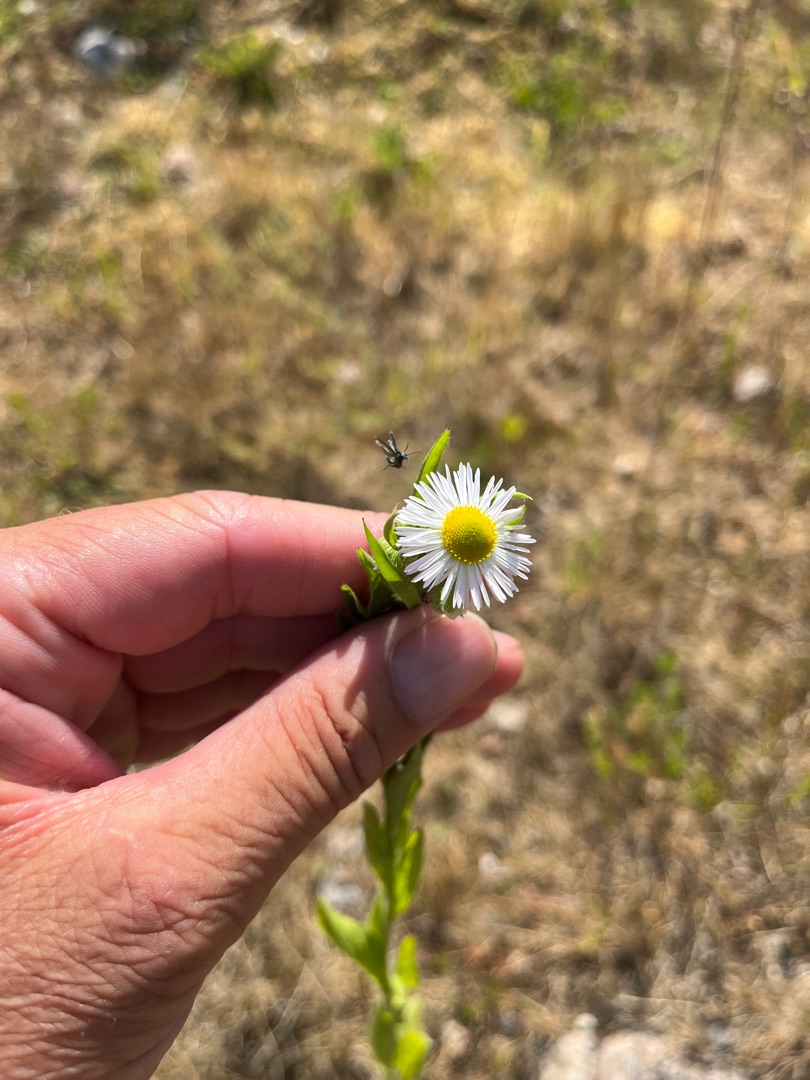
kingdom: Plantae
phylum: Tracheophyta
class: Magnoliopsida
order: Asterales
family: Asteraceae
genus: Erigeron
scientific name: Erigeron annuus
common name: Smalstråle
